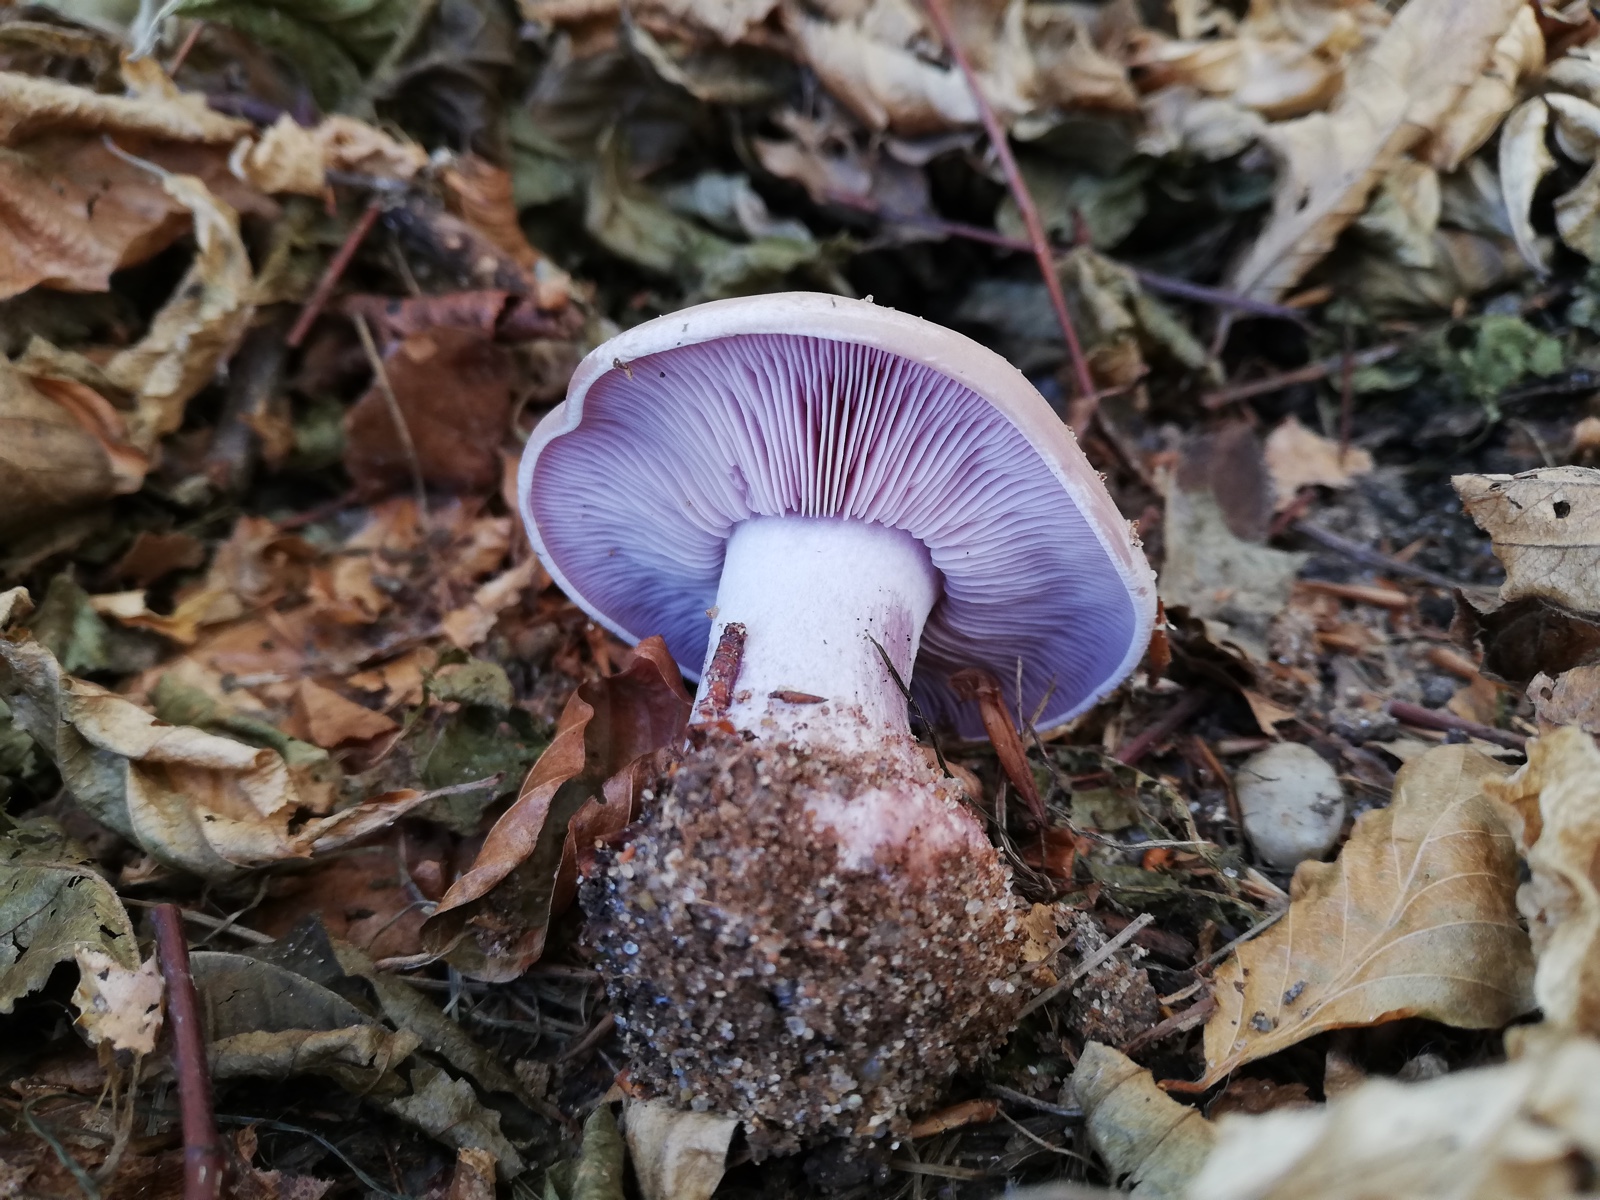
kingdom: Fungi
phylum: Basidiomycota
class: Agaricomycetes
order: Agaricales
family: Tricholomataceae
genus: Lepista
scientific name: Lepista nuda
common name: violet hekseringshat
